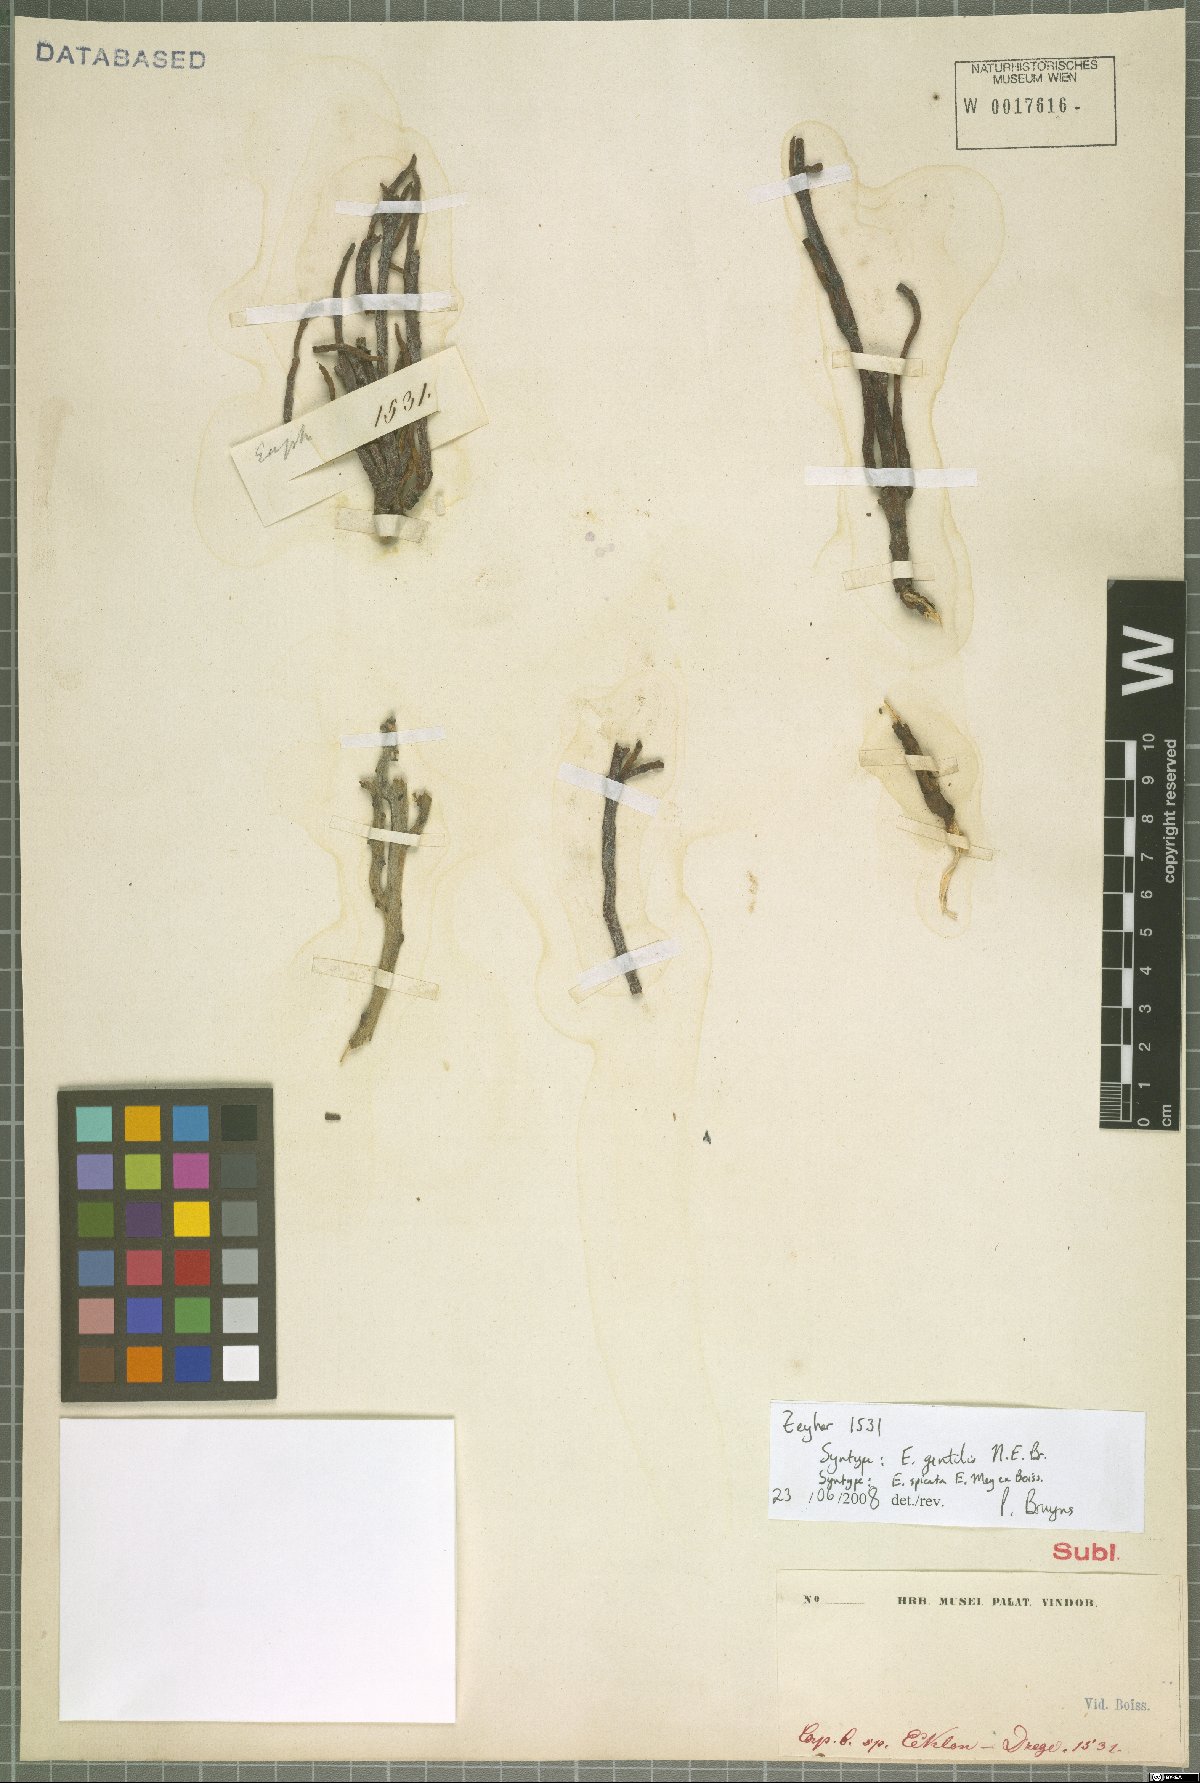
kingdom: Plantae
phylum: Tracheophyta
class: Magnoliopsida
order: Malpighiales
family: Euphorbiaceae
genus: Euphorbia
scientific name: Euphorbia muricata
